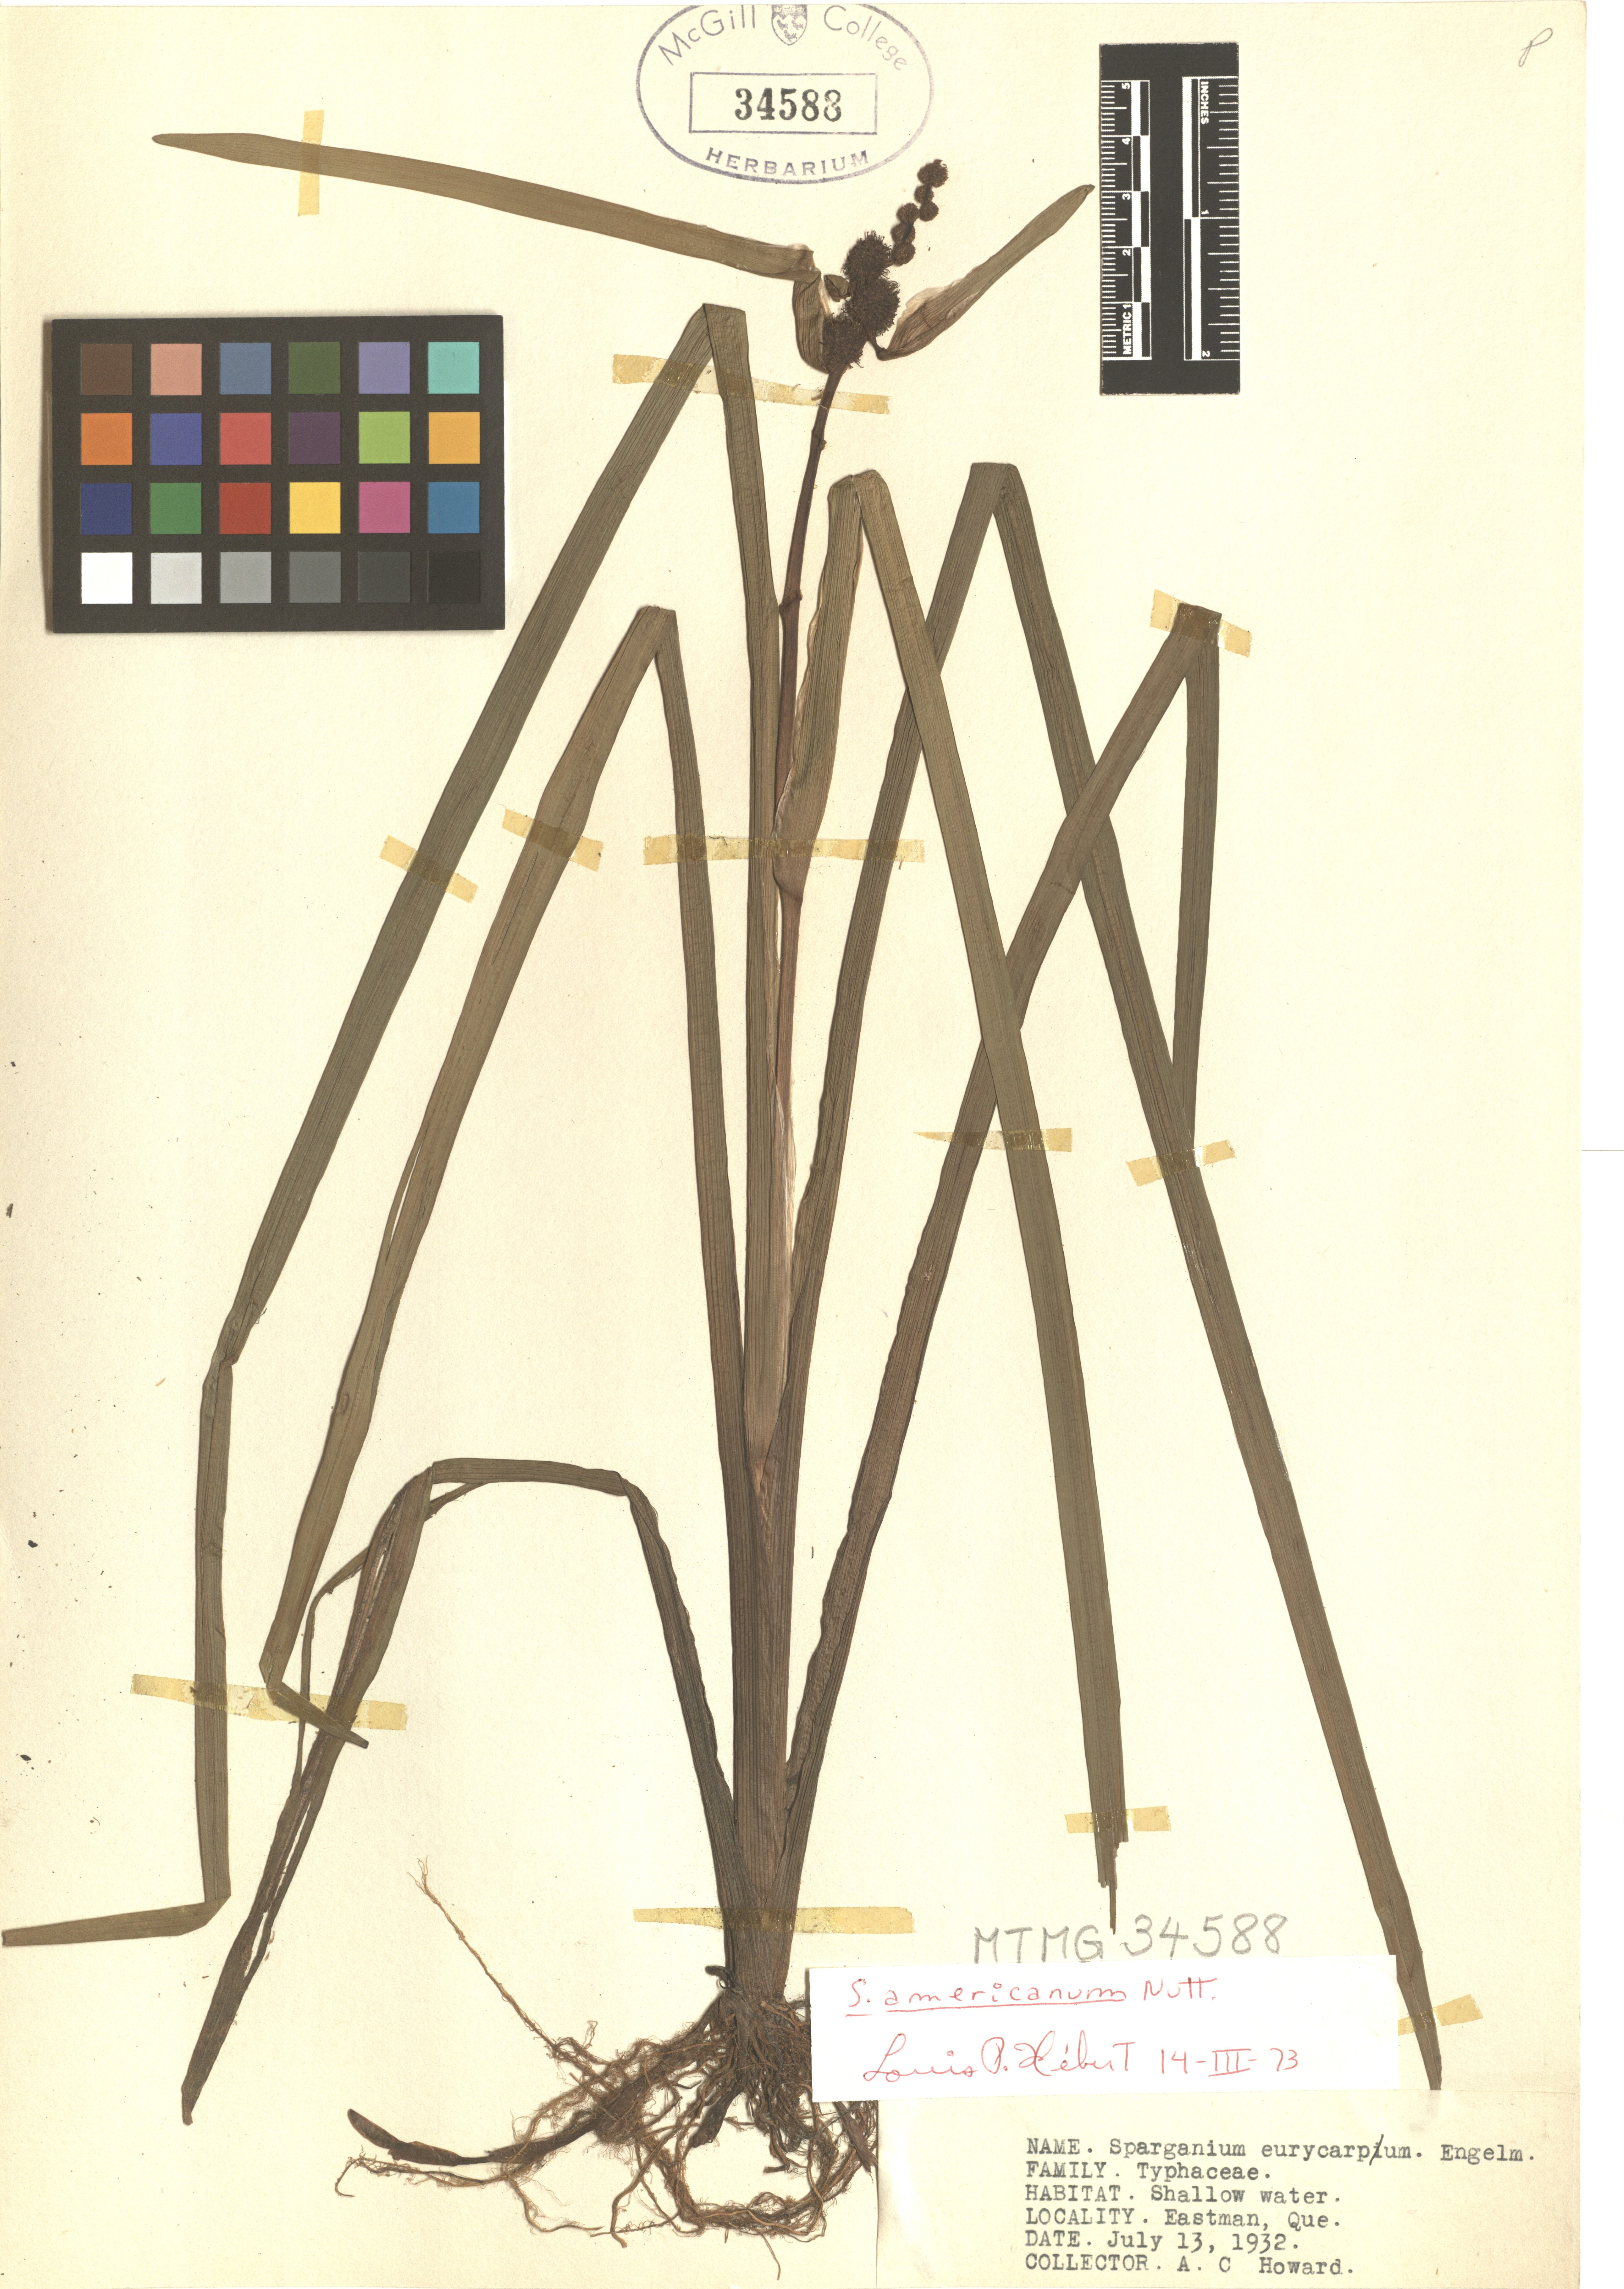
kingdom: Plantae
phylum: Tracheophyta
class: Liliopsida
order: Poales
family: Typhaceae
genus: Sparganium
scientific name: Sparganium americanum
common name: American burreed
